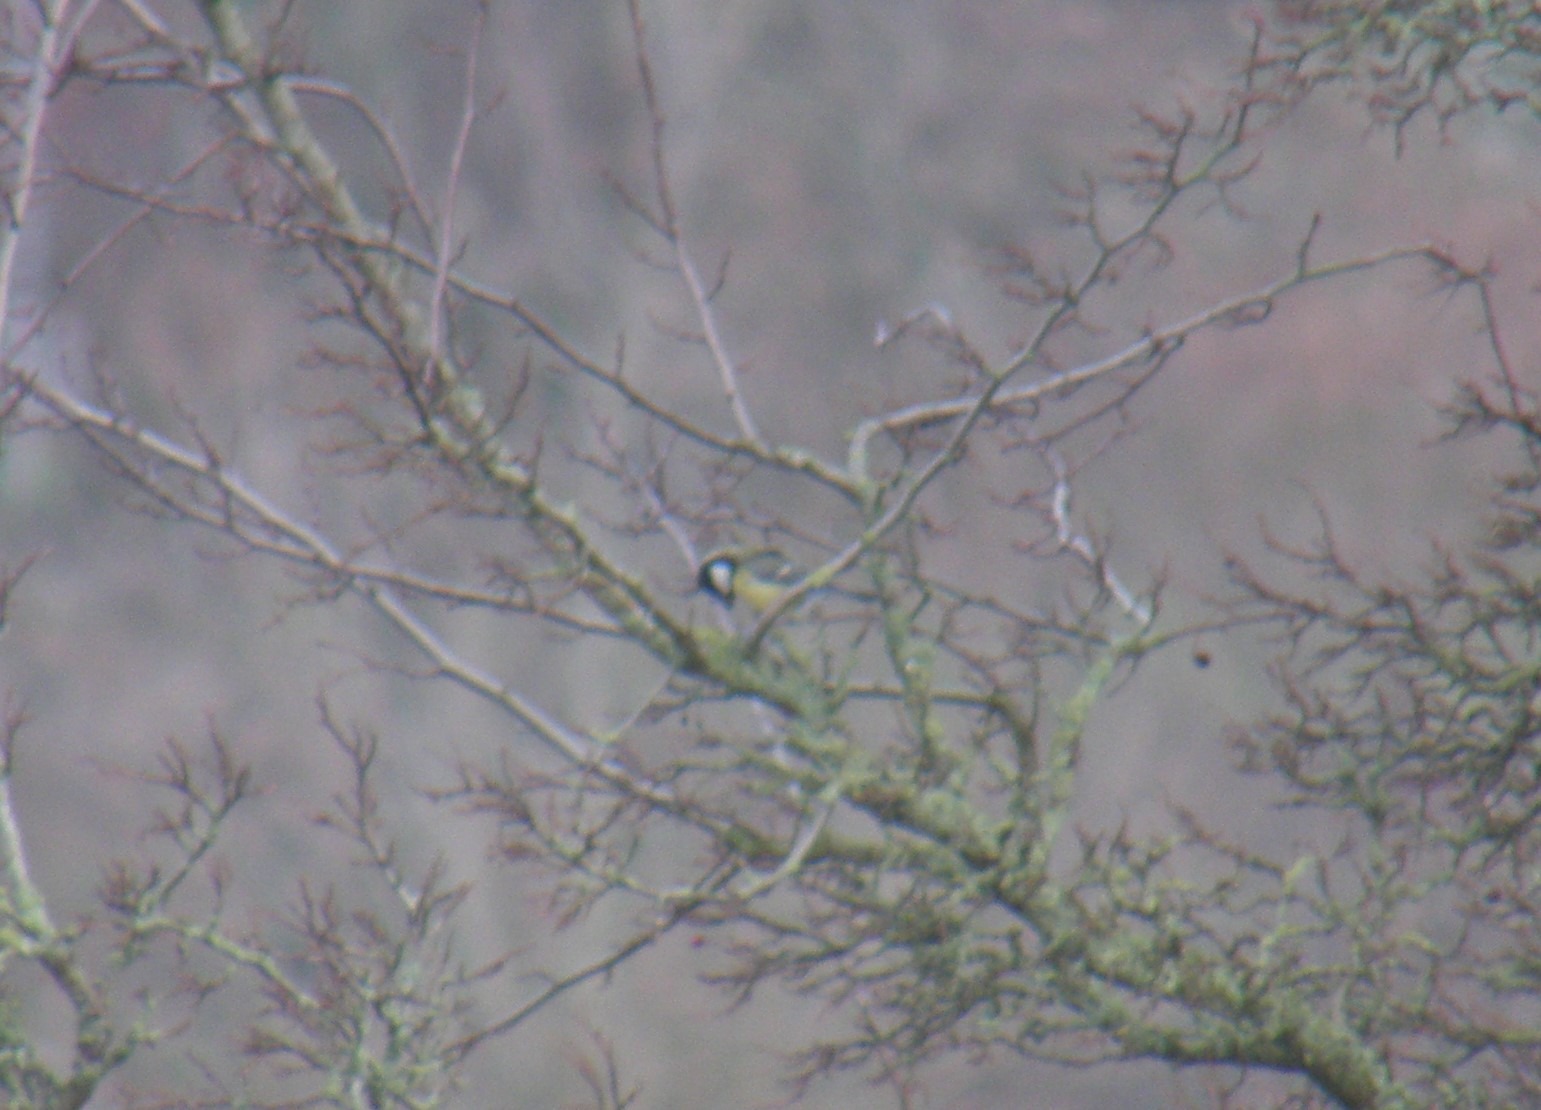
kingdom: Animalia
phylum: Chordata
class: Aves
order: Passeriformes
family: Paridae
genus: Parus
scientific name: Parus major
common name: Musvit
